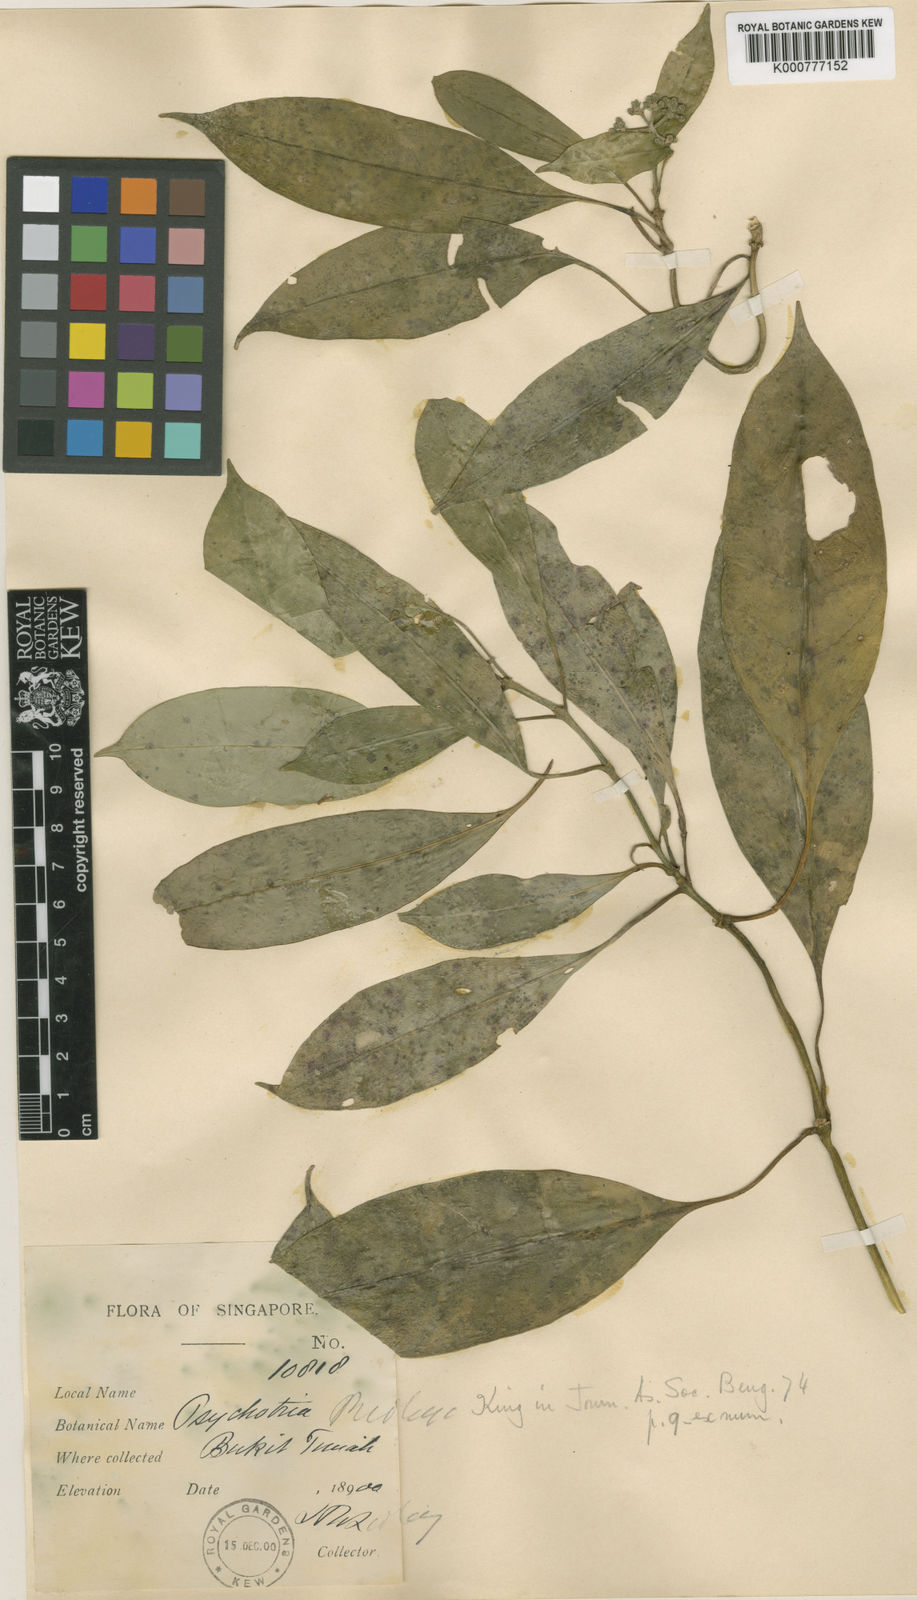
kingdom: Plantae
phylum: Tracheophyta
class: Magnoliopsida
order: Gentianales
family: Rubiaceae
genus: Psychotria
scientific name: Psychotria ridleyi
